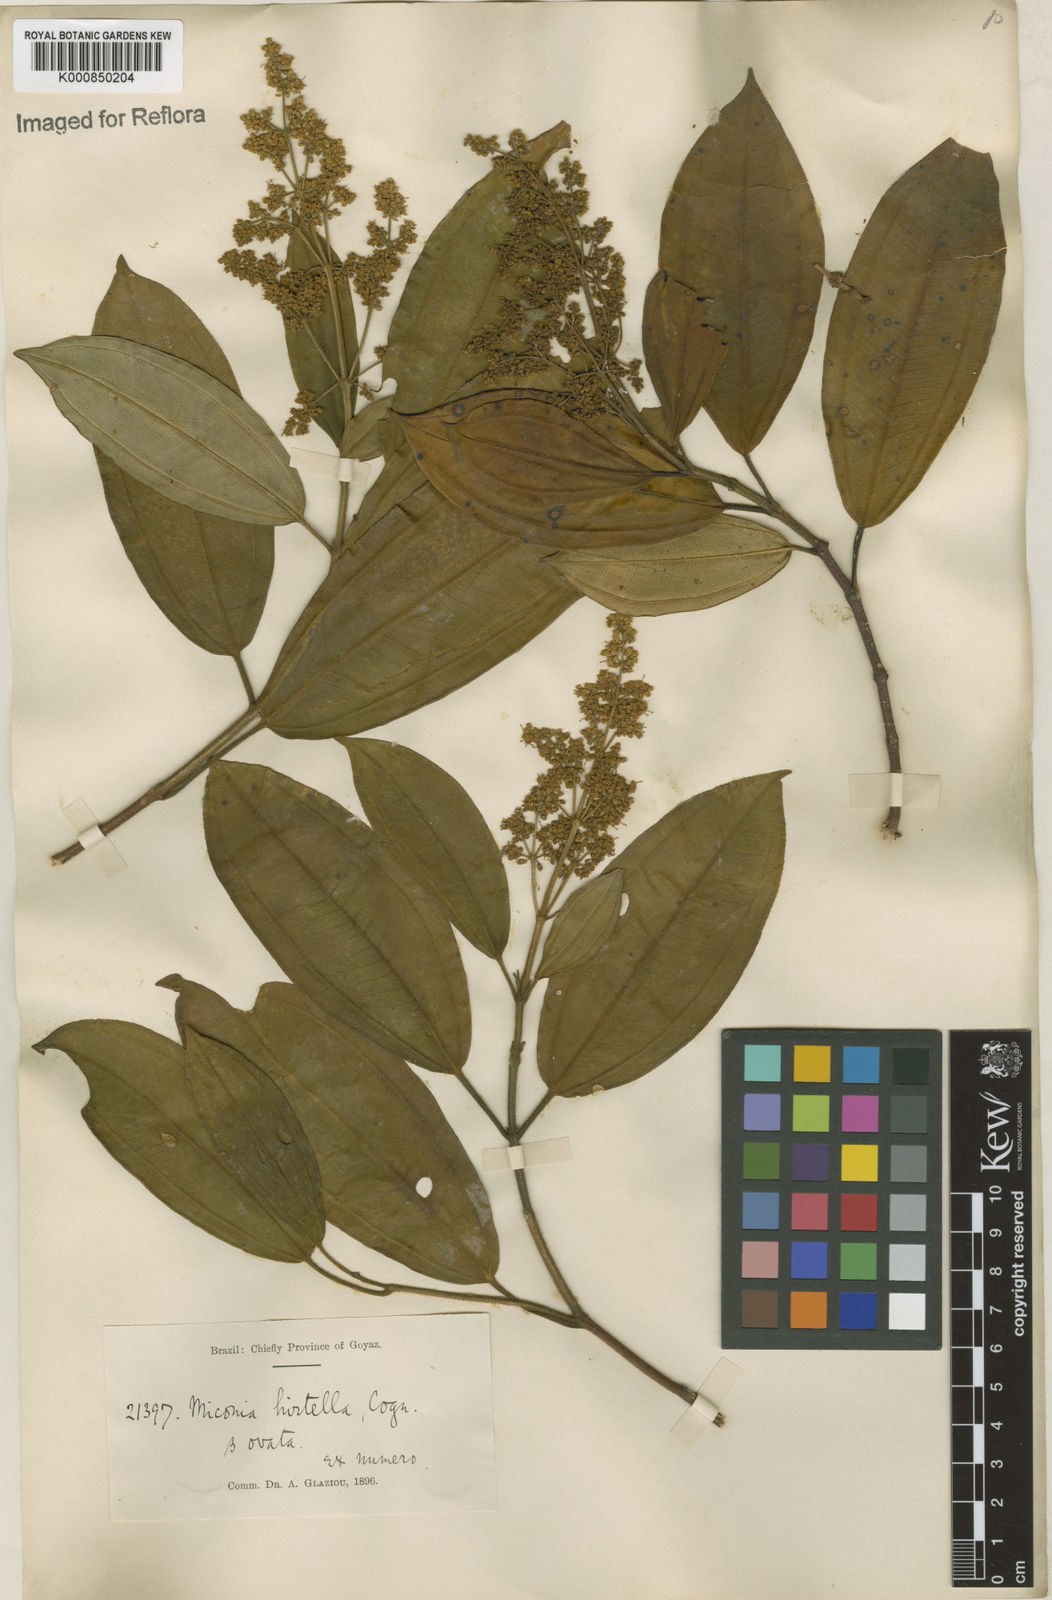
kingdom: Plantae
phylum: Tracheophyta
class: Magnoliopsida
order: Myrtales
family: Melastomataceae
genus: Miconia
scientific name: Miconia hirta
